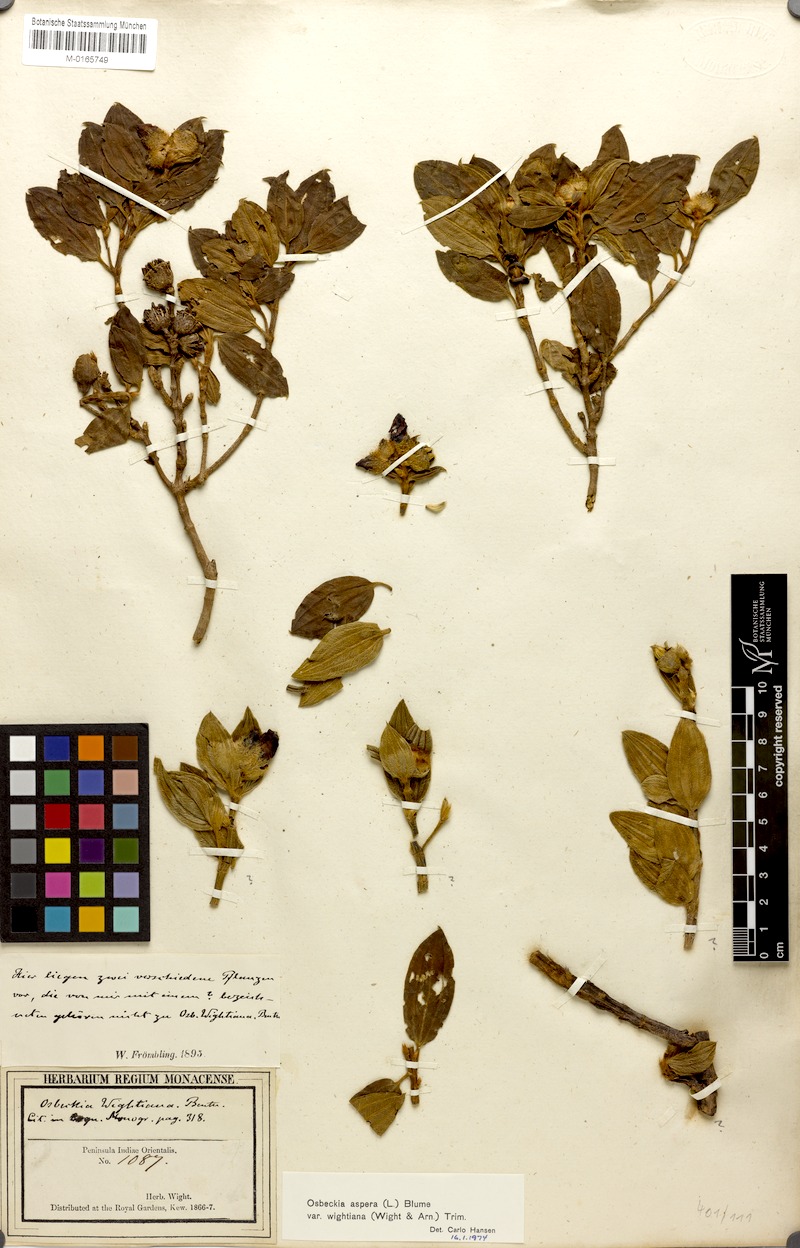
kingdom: Plantae
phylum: Tracheophyta
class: Magnoliopsida
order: Myrtales
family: Melastomataceae
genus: Osbeckia
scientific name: Osbeckia
